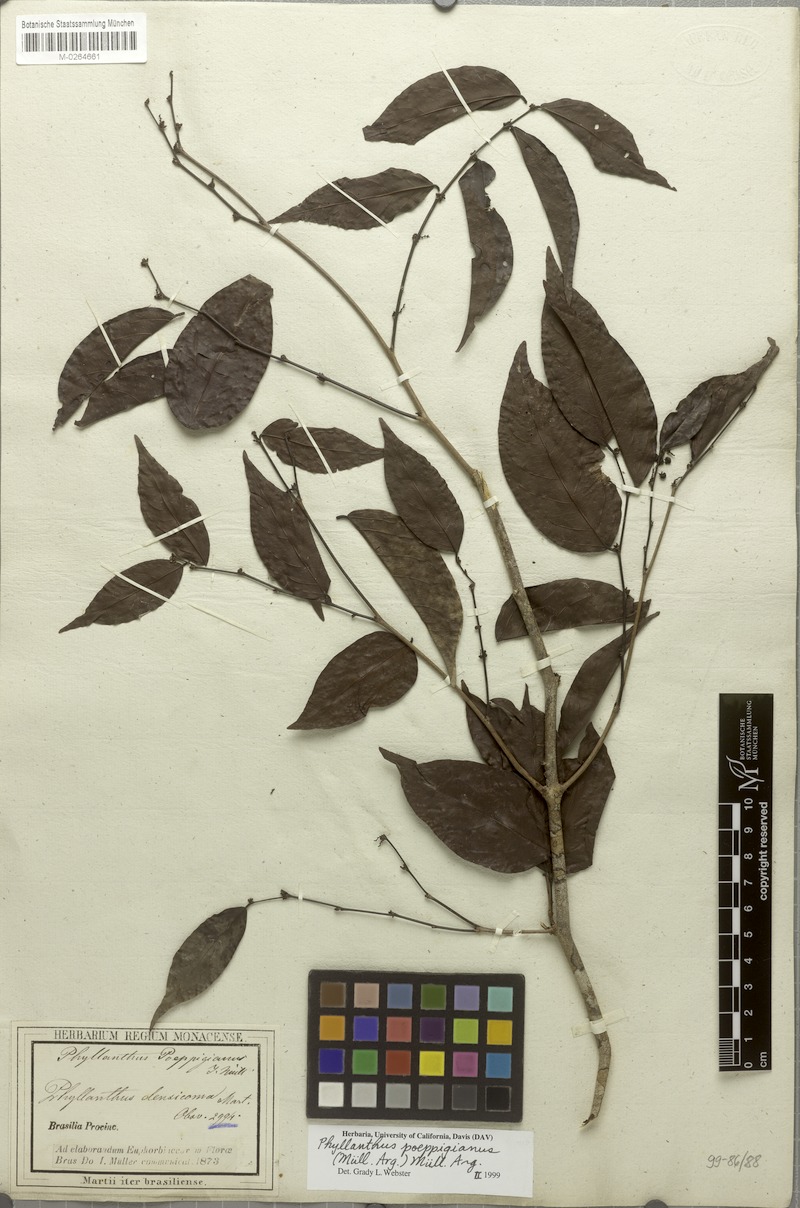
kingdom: Plantae
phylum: Tracheophyta
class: Magnoliopsida
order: Malpighiales
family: Phyllanthaceae
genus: Phyllanthus
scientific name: Phyllanthus poeppigianus
